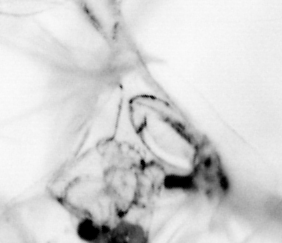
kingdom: Animalia
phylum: Chaetognatha
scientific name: Chaetognatha
